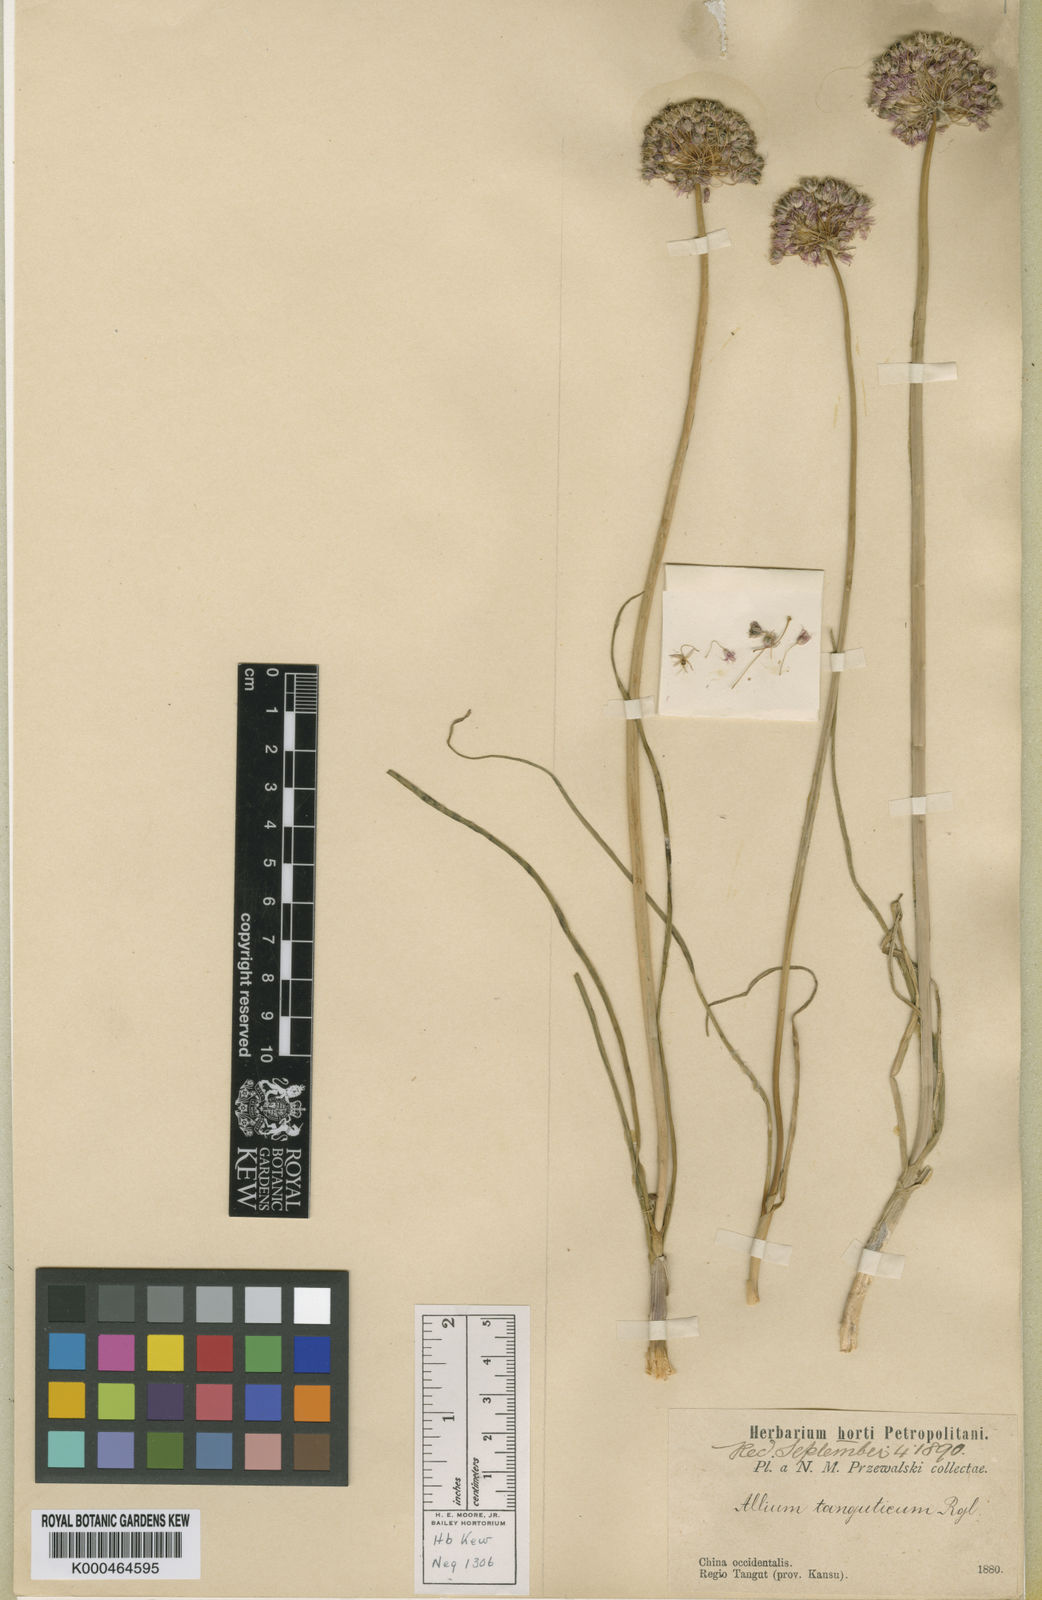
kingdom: Plantae
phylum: Tracheophyta
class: Liliopsida
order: Asparagales
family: Amaryllidaceae
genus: Allium
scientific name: Allium tanguticum
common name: Lavender globe-lily
